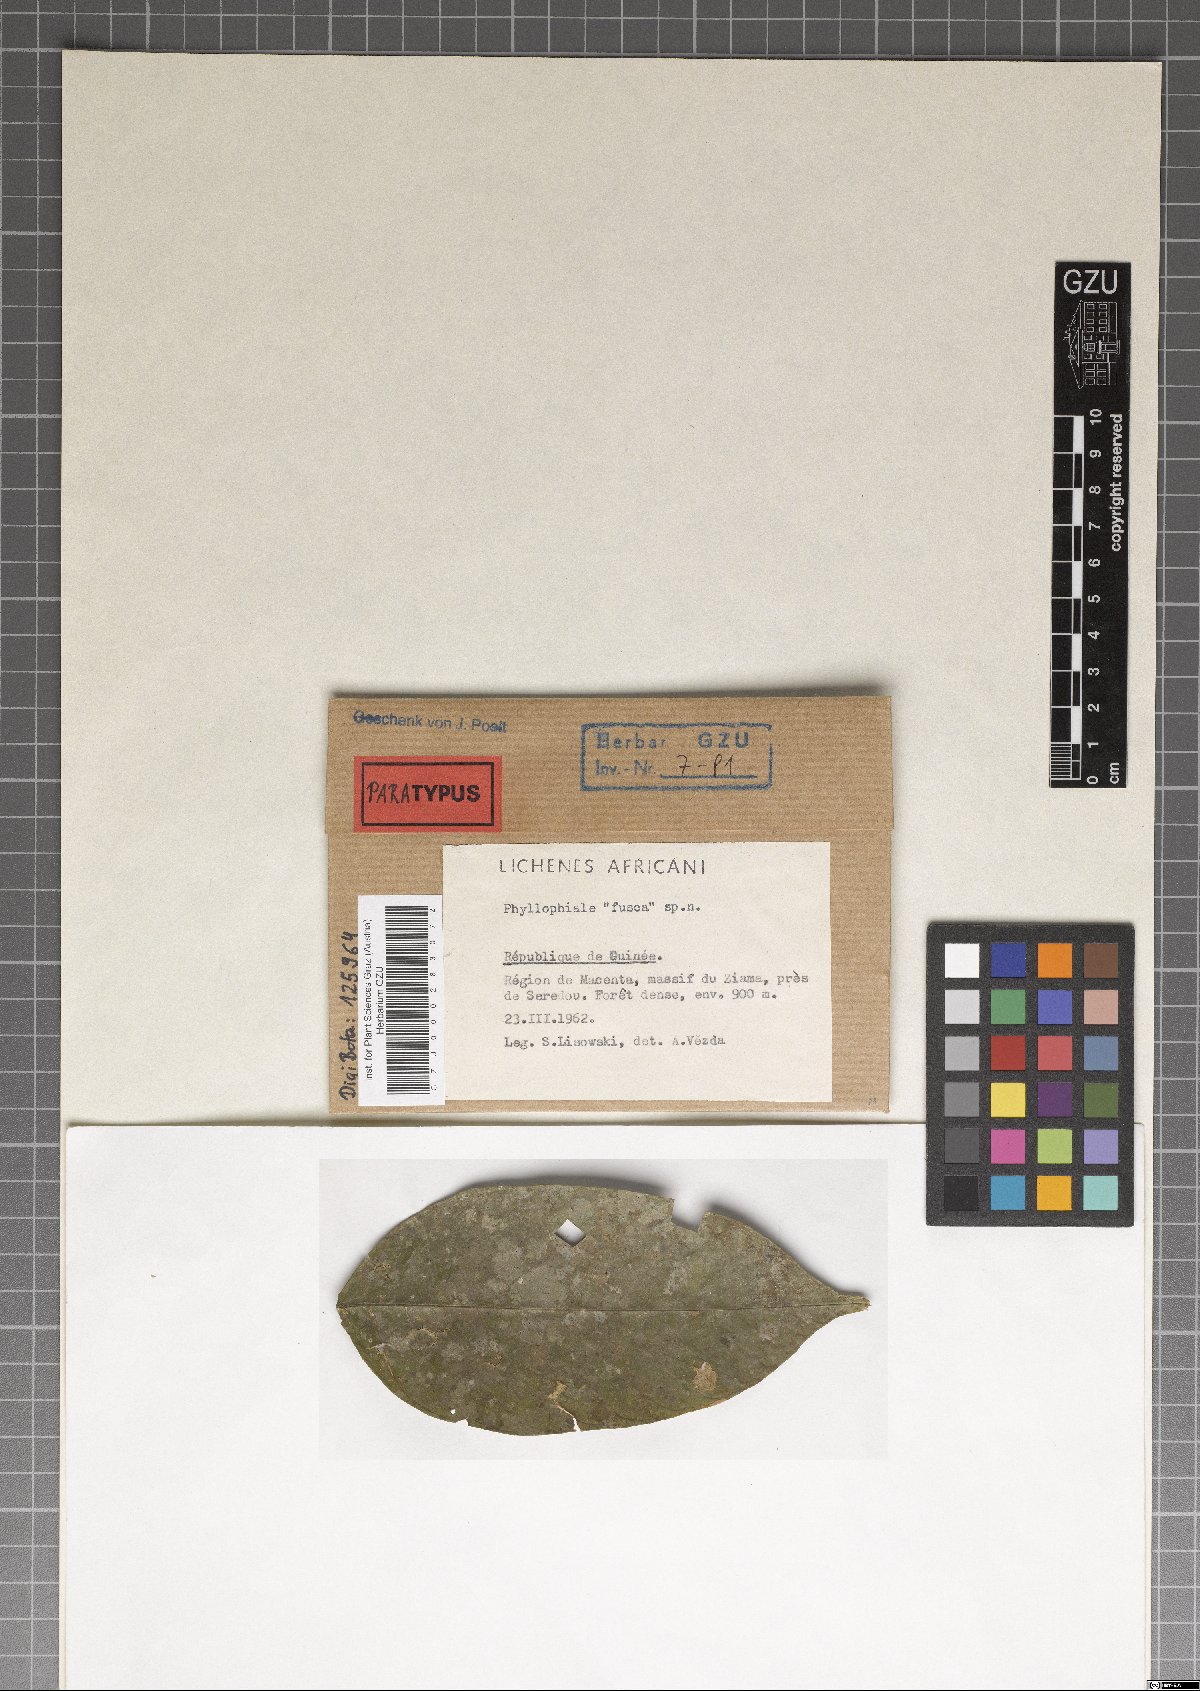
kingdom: Fungi
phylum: Ascomycota
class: Lecanoromycetes
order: Pertusariales
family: Pertusariaceae
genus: Phyllophiale
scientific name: Phyllophiale fusca
